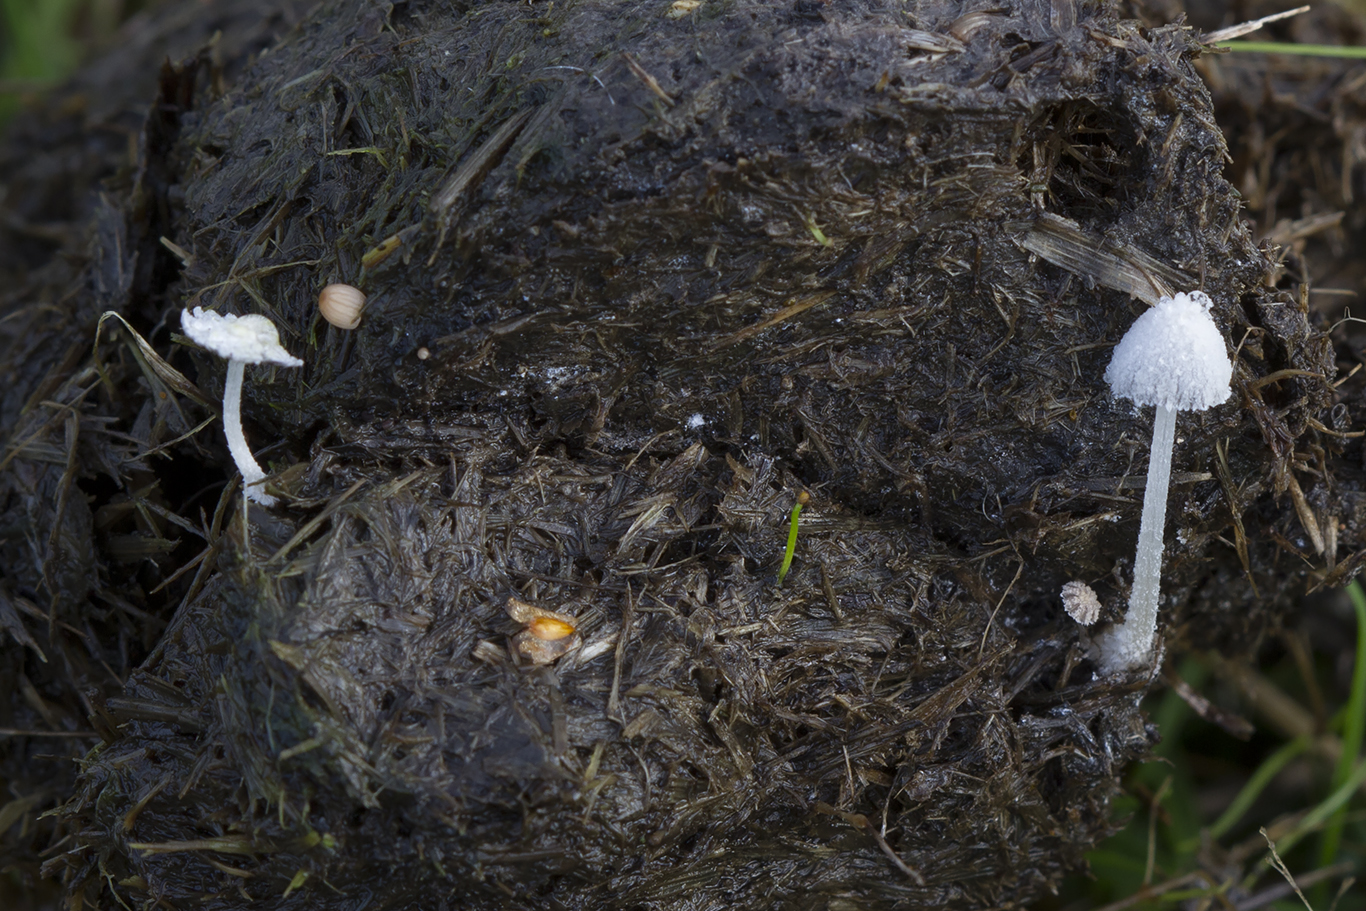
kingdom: Fungi
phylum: Basidiomycota
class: Agaricomycetes
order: Agaricales
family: Psathyrellaceae
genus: Coprinopsis
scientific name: Coprinopsis nivea
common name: snehvid blækhat
